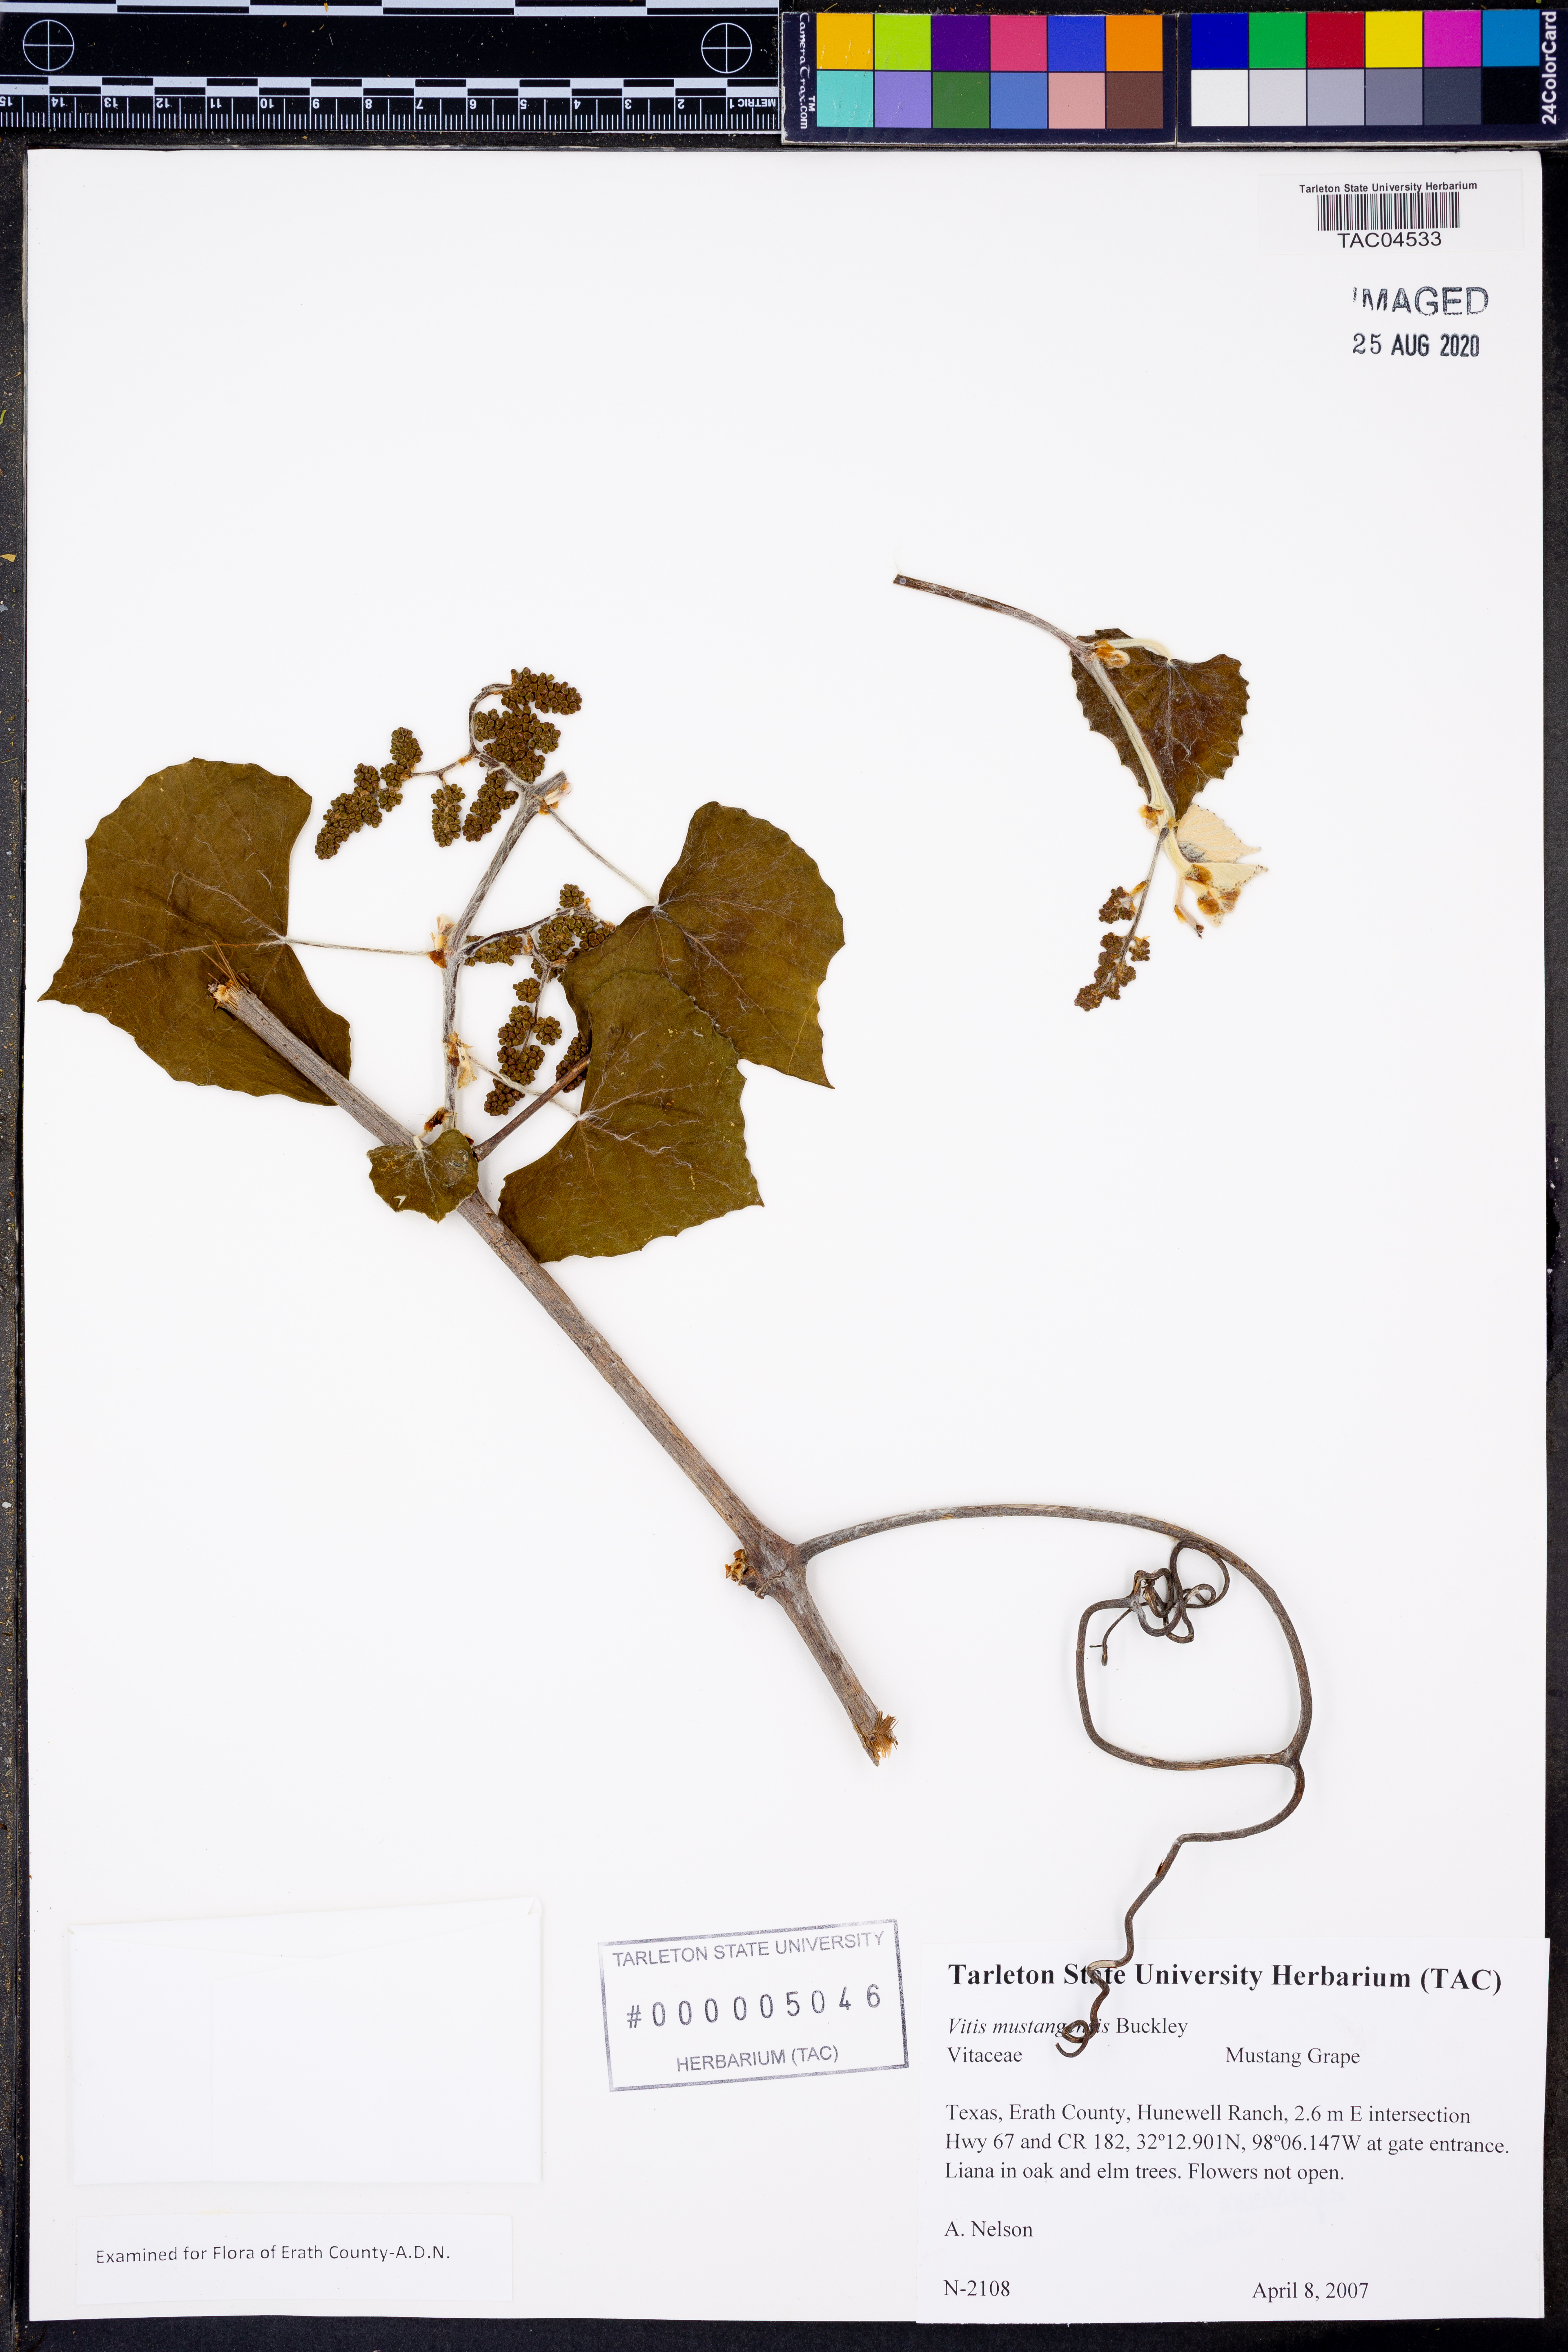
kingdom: Plantae
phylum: Tracheophyta
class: Magnoliopsida
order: Vitales
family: Vitaceae
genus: Vitis
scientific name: Vitis mustangensis
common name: Mustang grape
